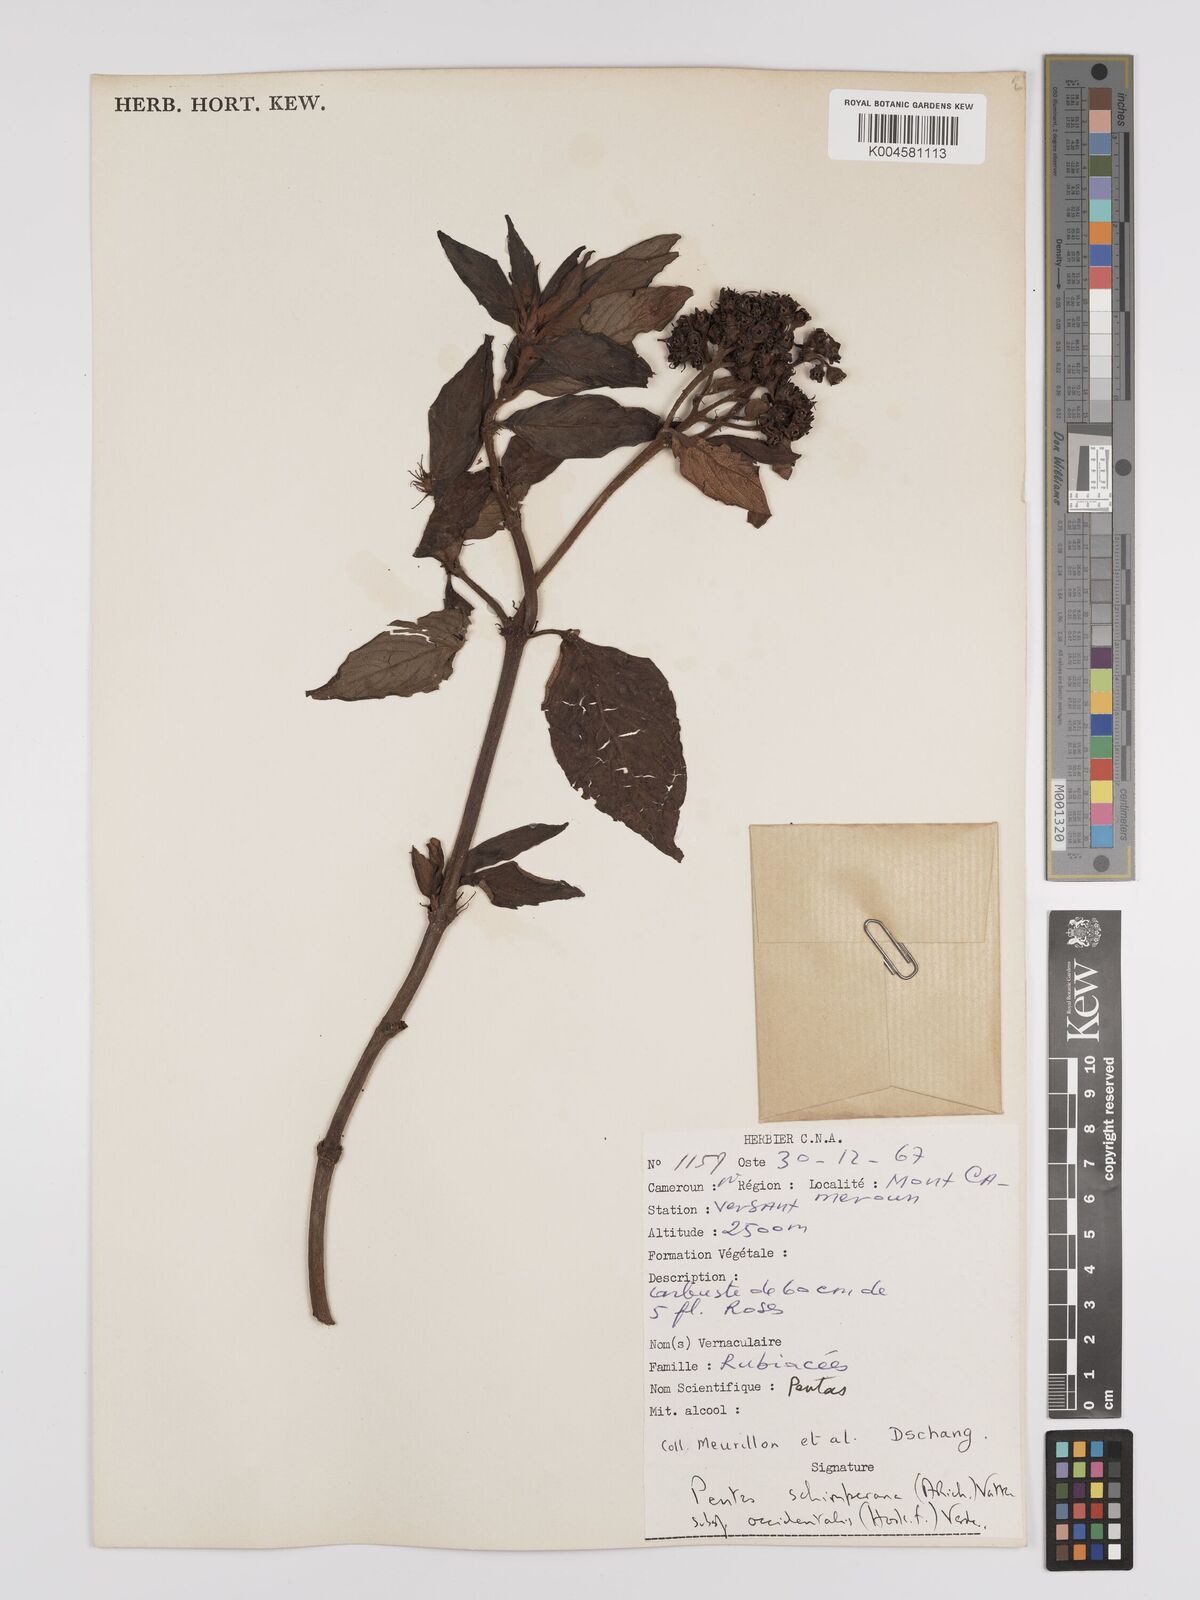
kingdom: Plantae
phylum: Tracheophyta
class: Magnoliopsida
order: Gentianales
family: Rubiaceae
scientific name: Rubiaceae
